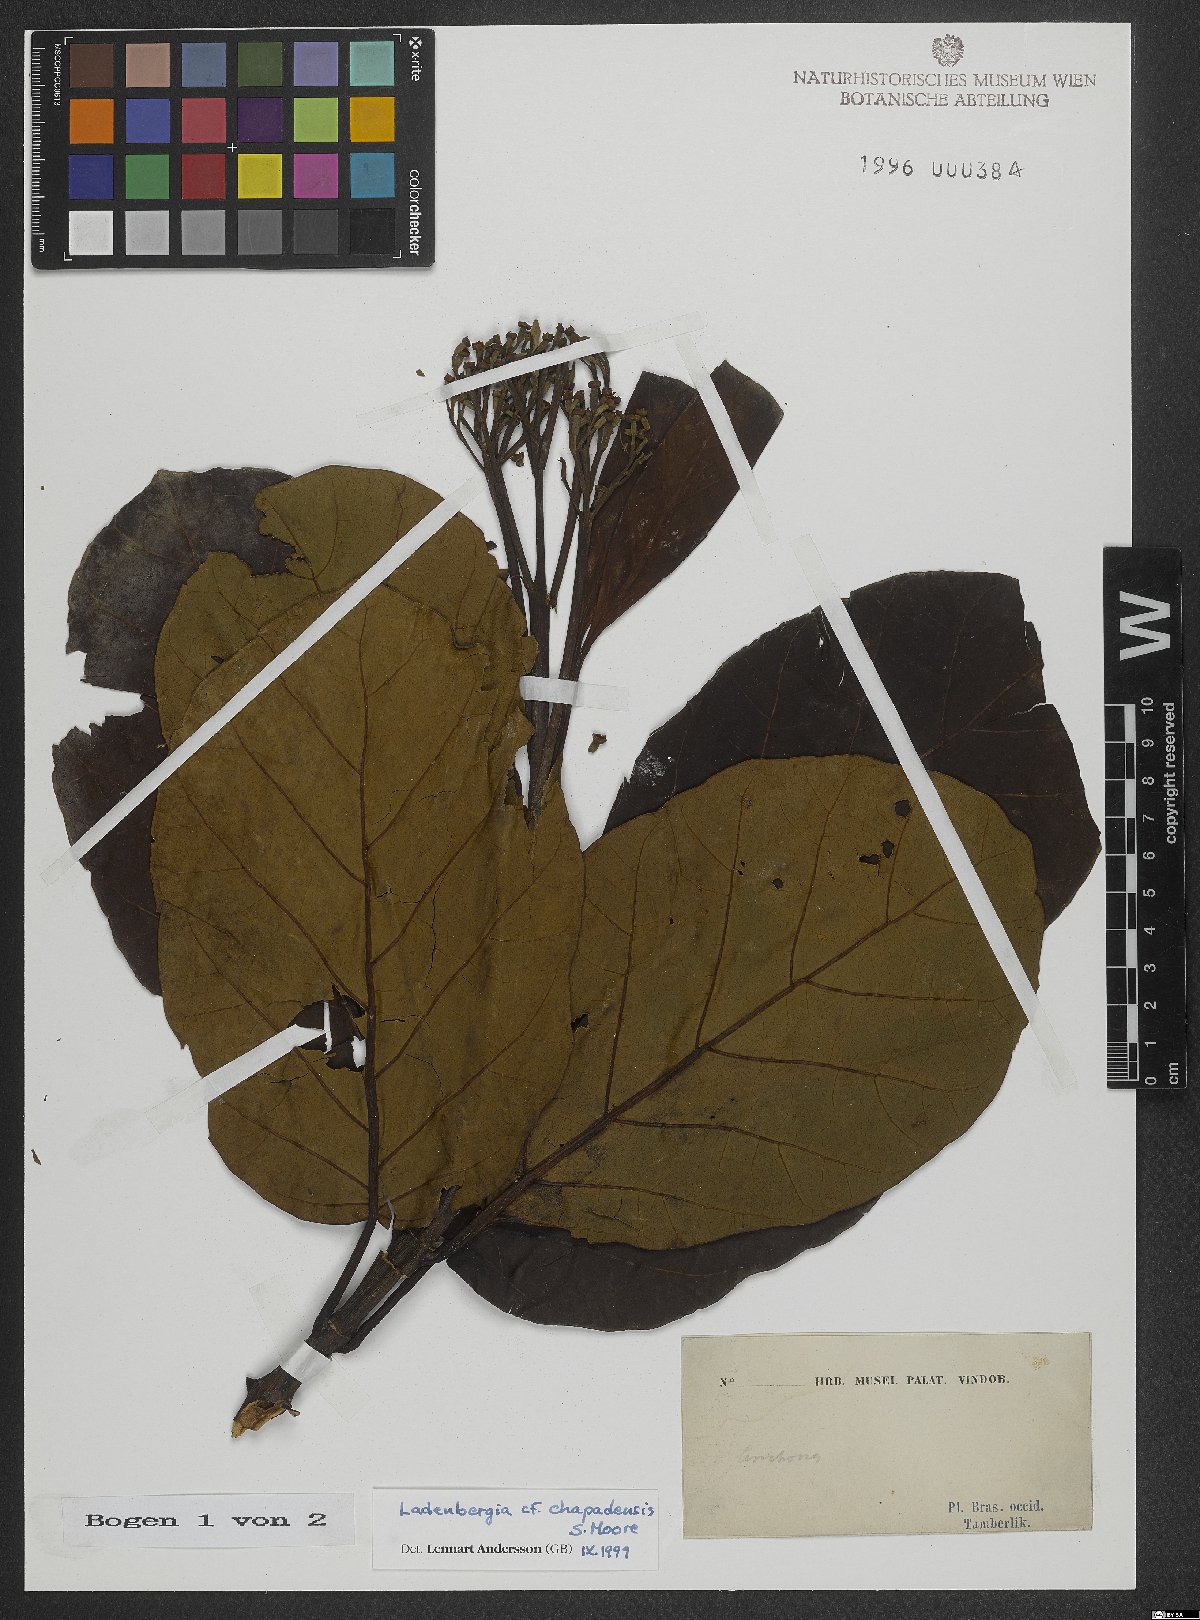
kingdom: Plantae
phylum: Tracheophyta
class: Magnoliopsida
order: Gentianales
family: Rubiaceae
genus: Ladenbergia
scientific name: Ladenbergia chapadensis
